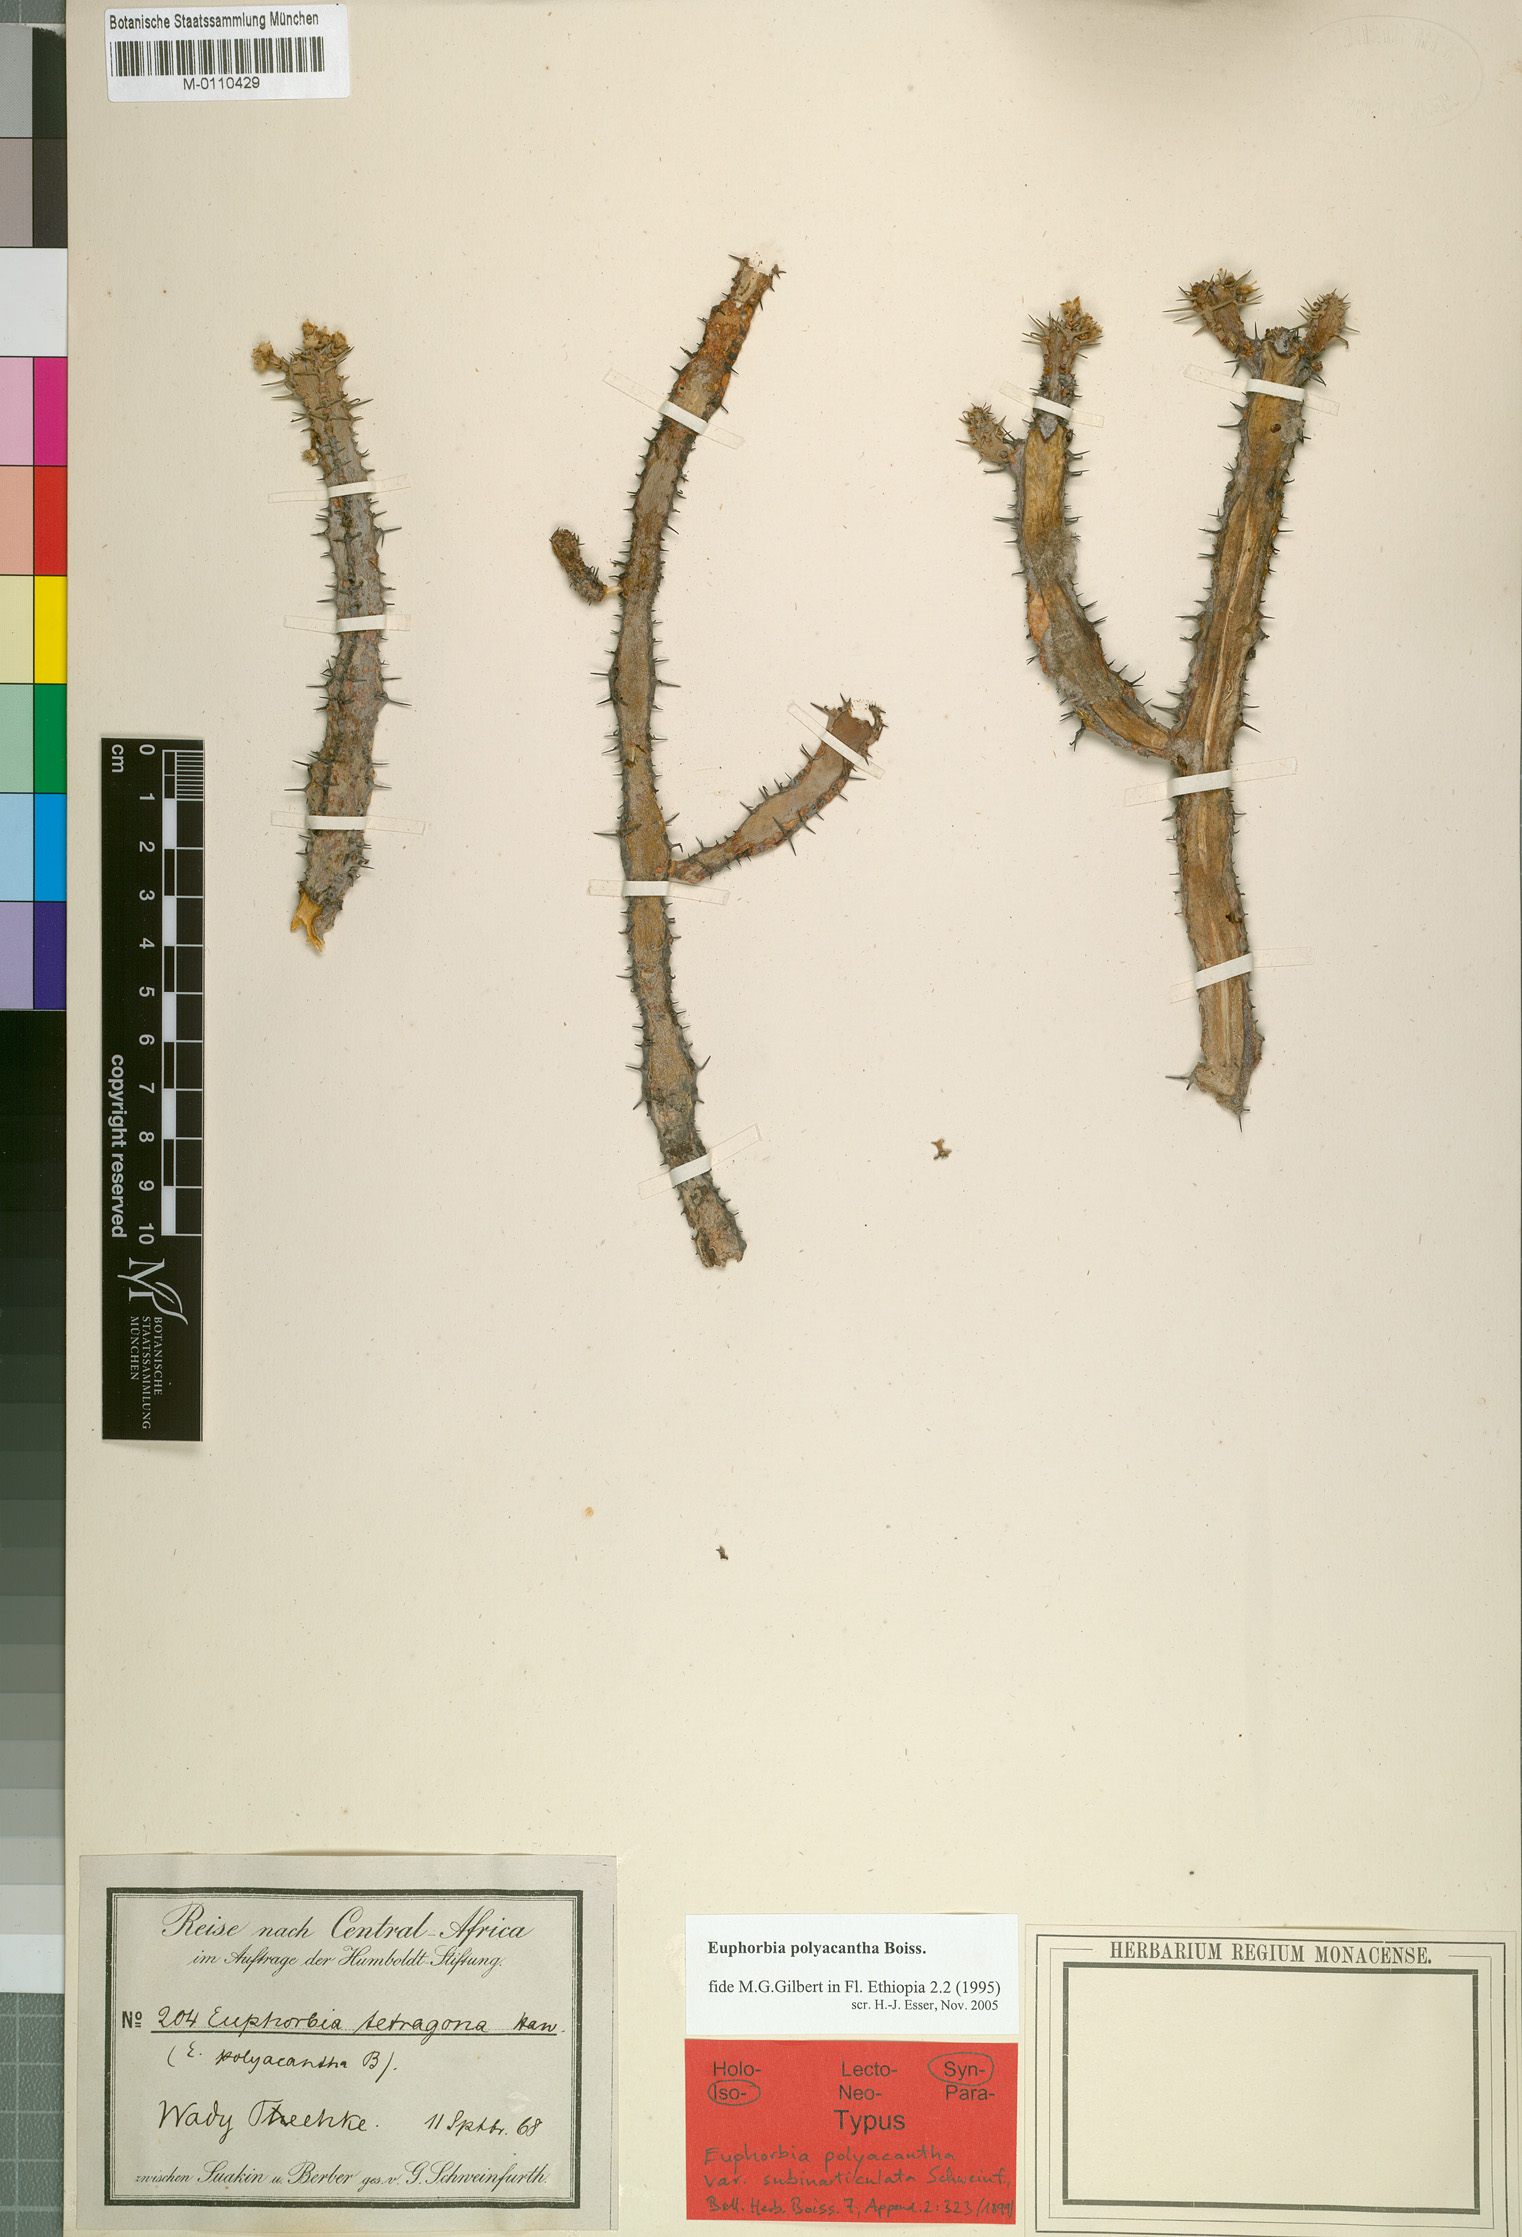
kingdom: Plantae
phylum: Tracheophyta
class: Magnoliopsida
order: Malpighiales
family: Euphorbiaceae
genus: Euphorbia
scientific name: Euphorbia polyacantha
